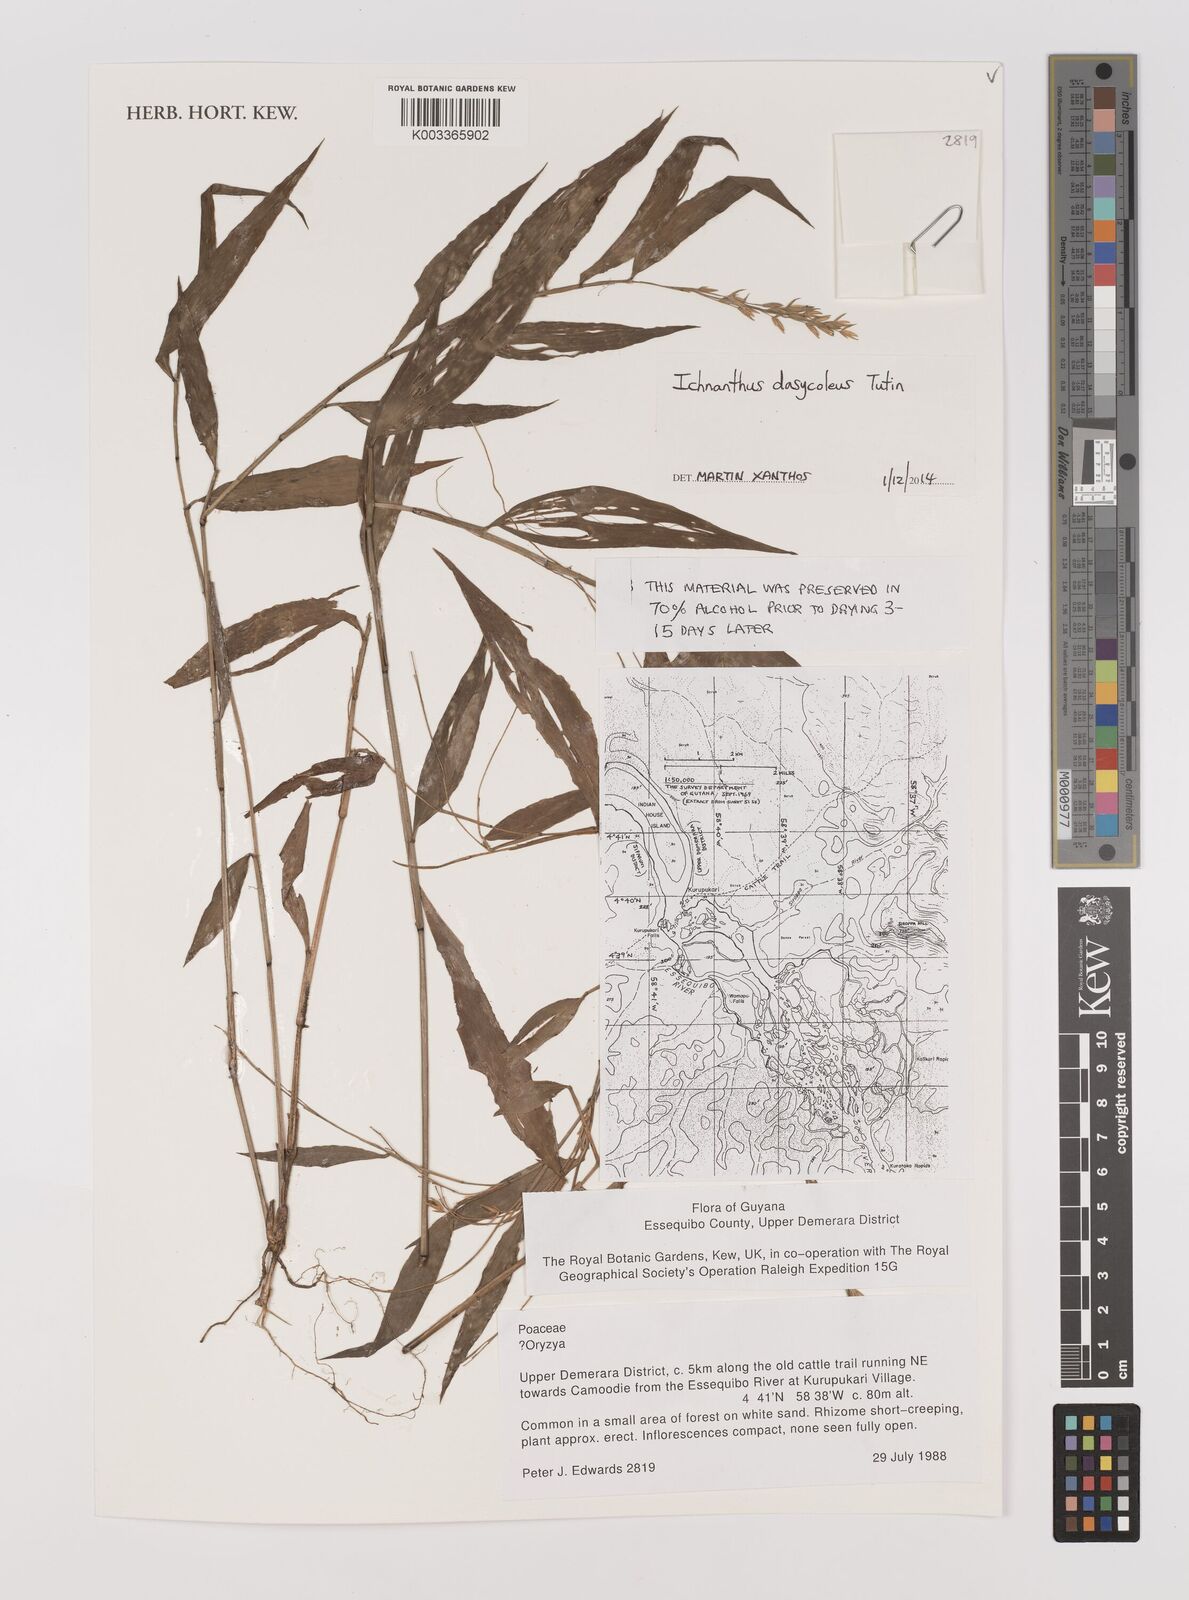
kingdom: Plantae
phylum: Tracheophyta
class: Liliopsida
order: Poales
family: Poaceae
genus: Ichnanthus
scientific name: Ichnanthus dasycoleus
